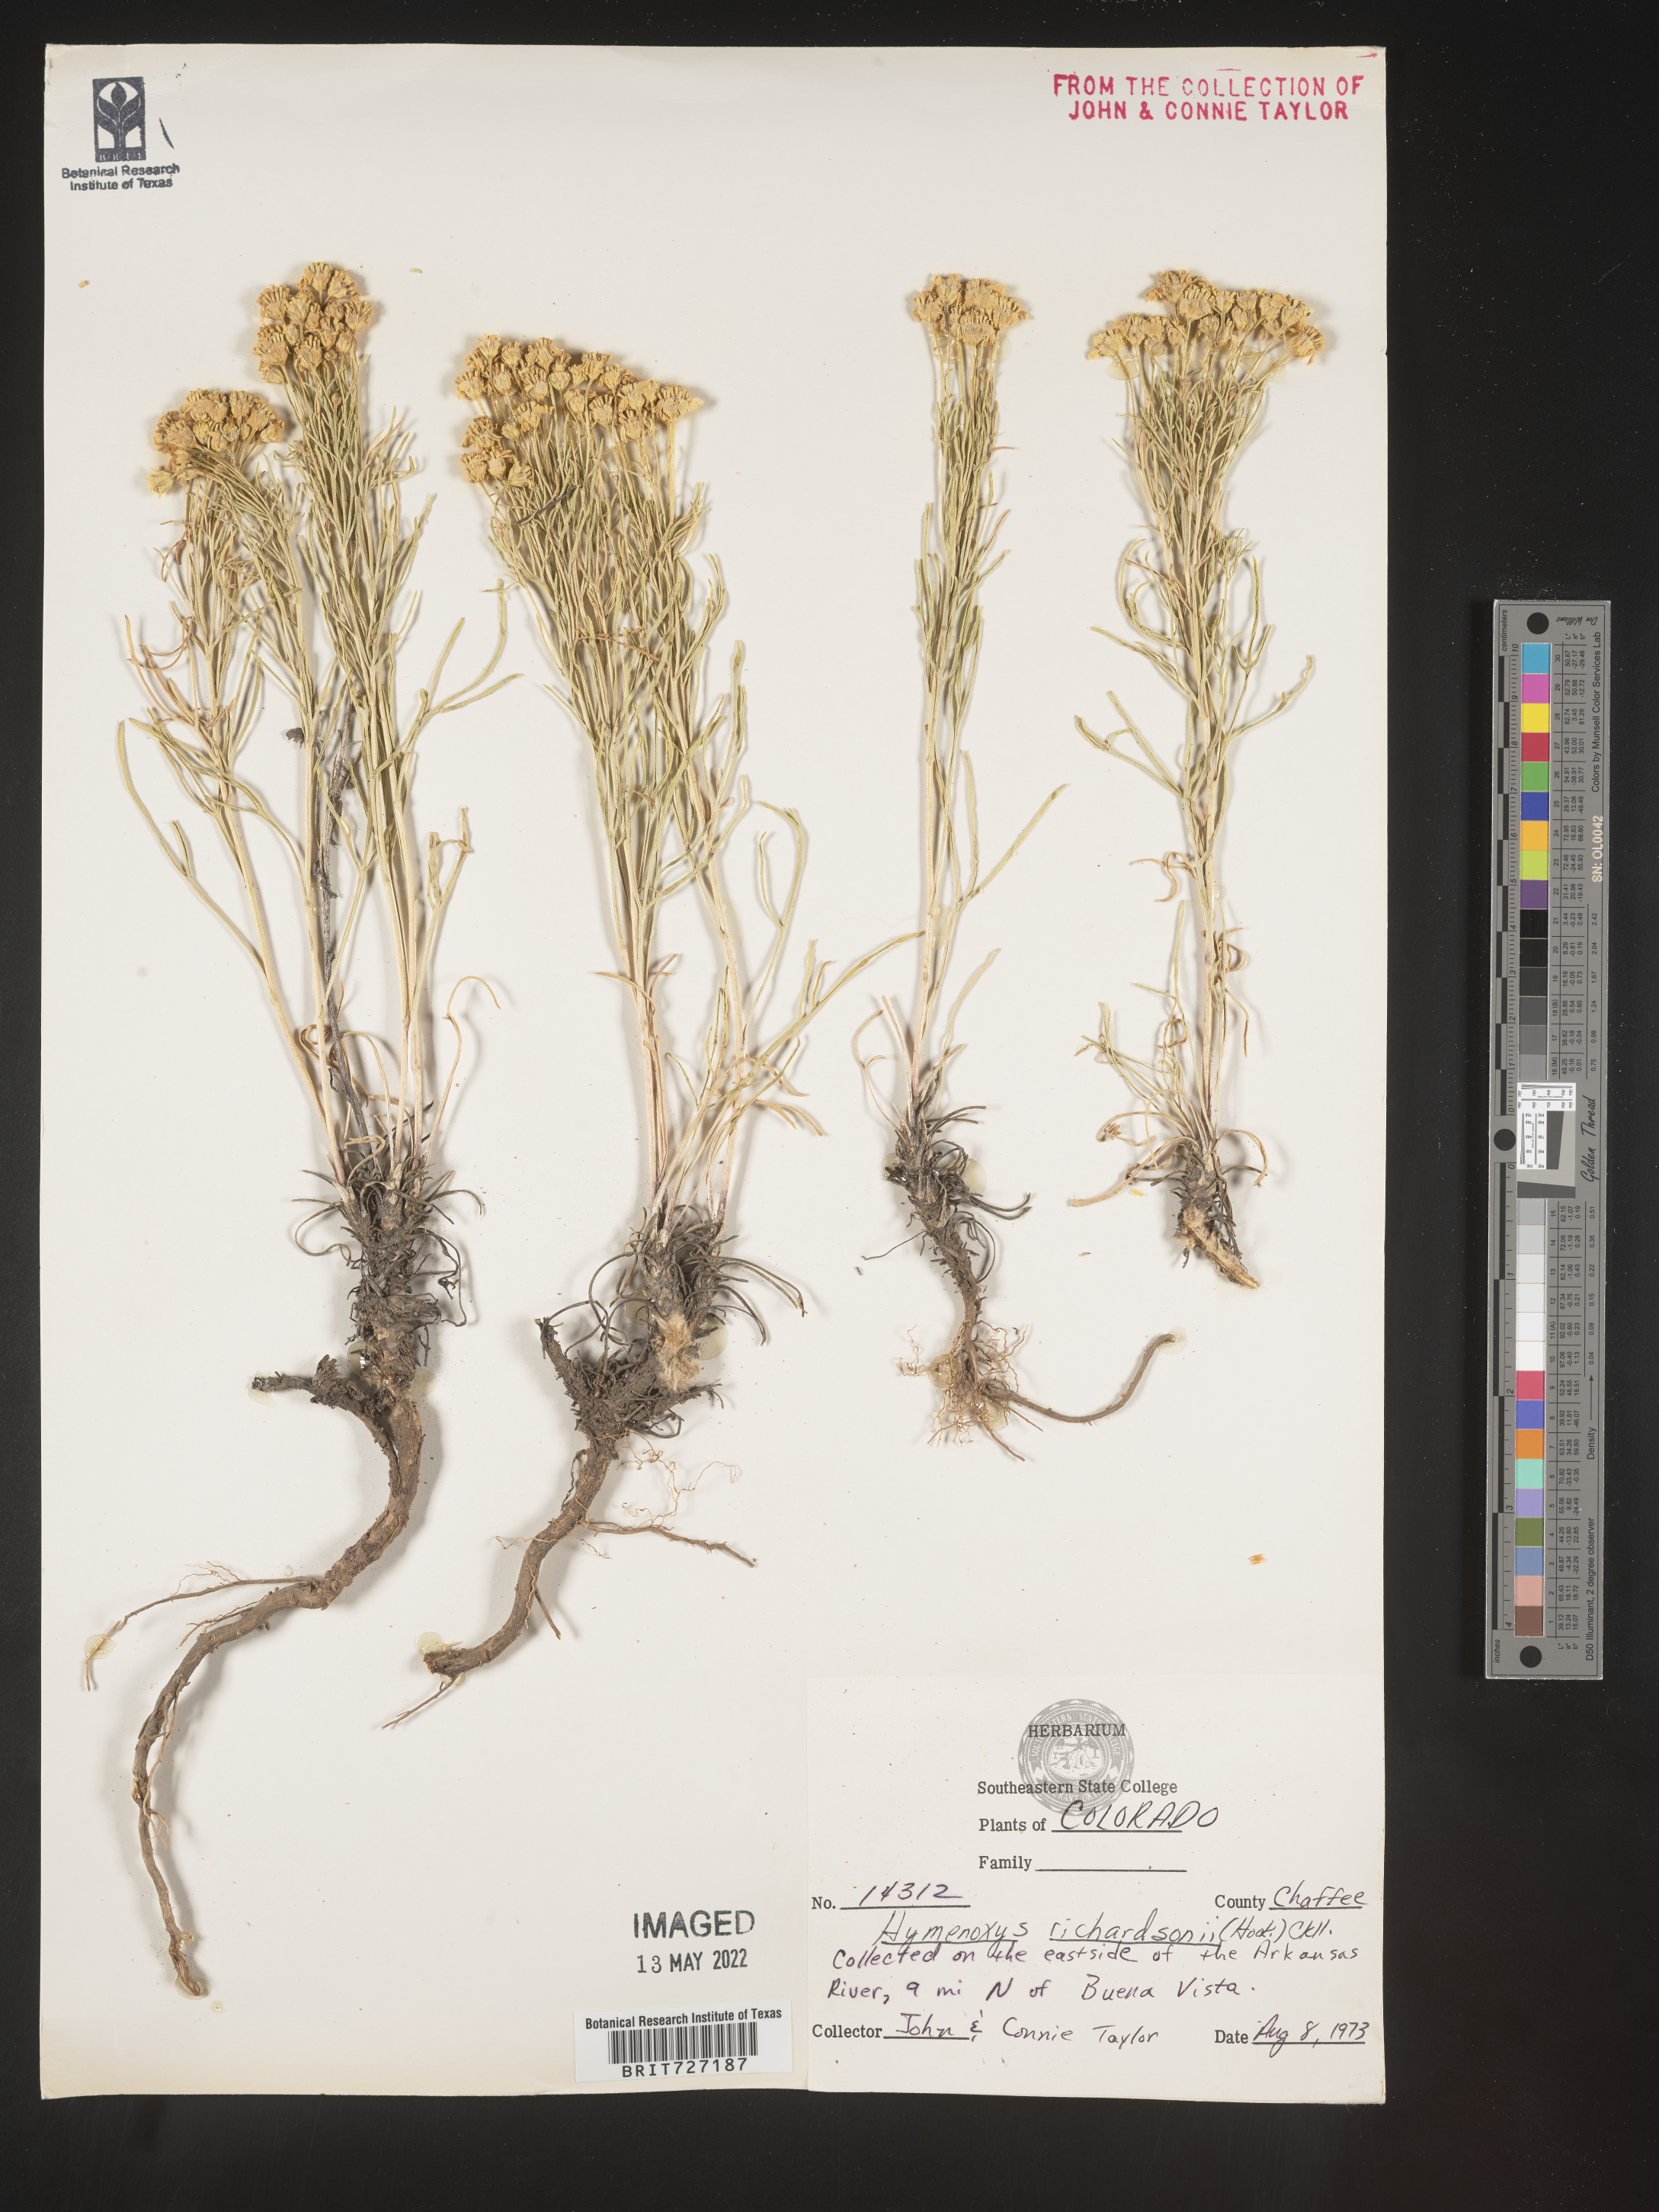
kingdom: Plantae
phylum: Tracheophyta
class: Magnoliopsida
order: Asterales
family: Asteraceae
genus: Hymenoxys
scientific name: Hymenoxys richardsonii
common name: Pingue rubberweed
